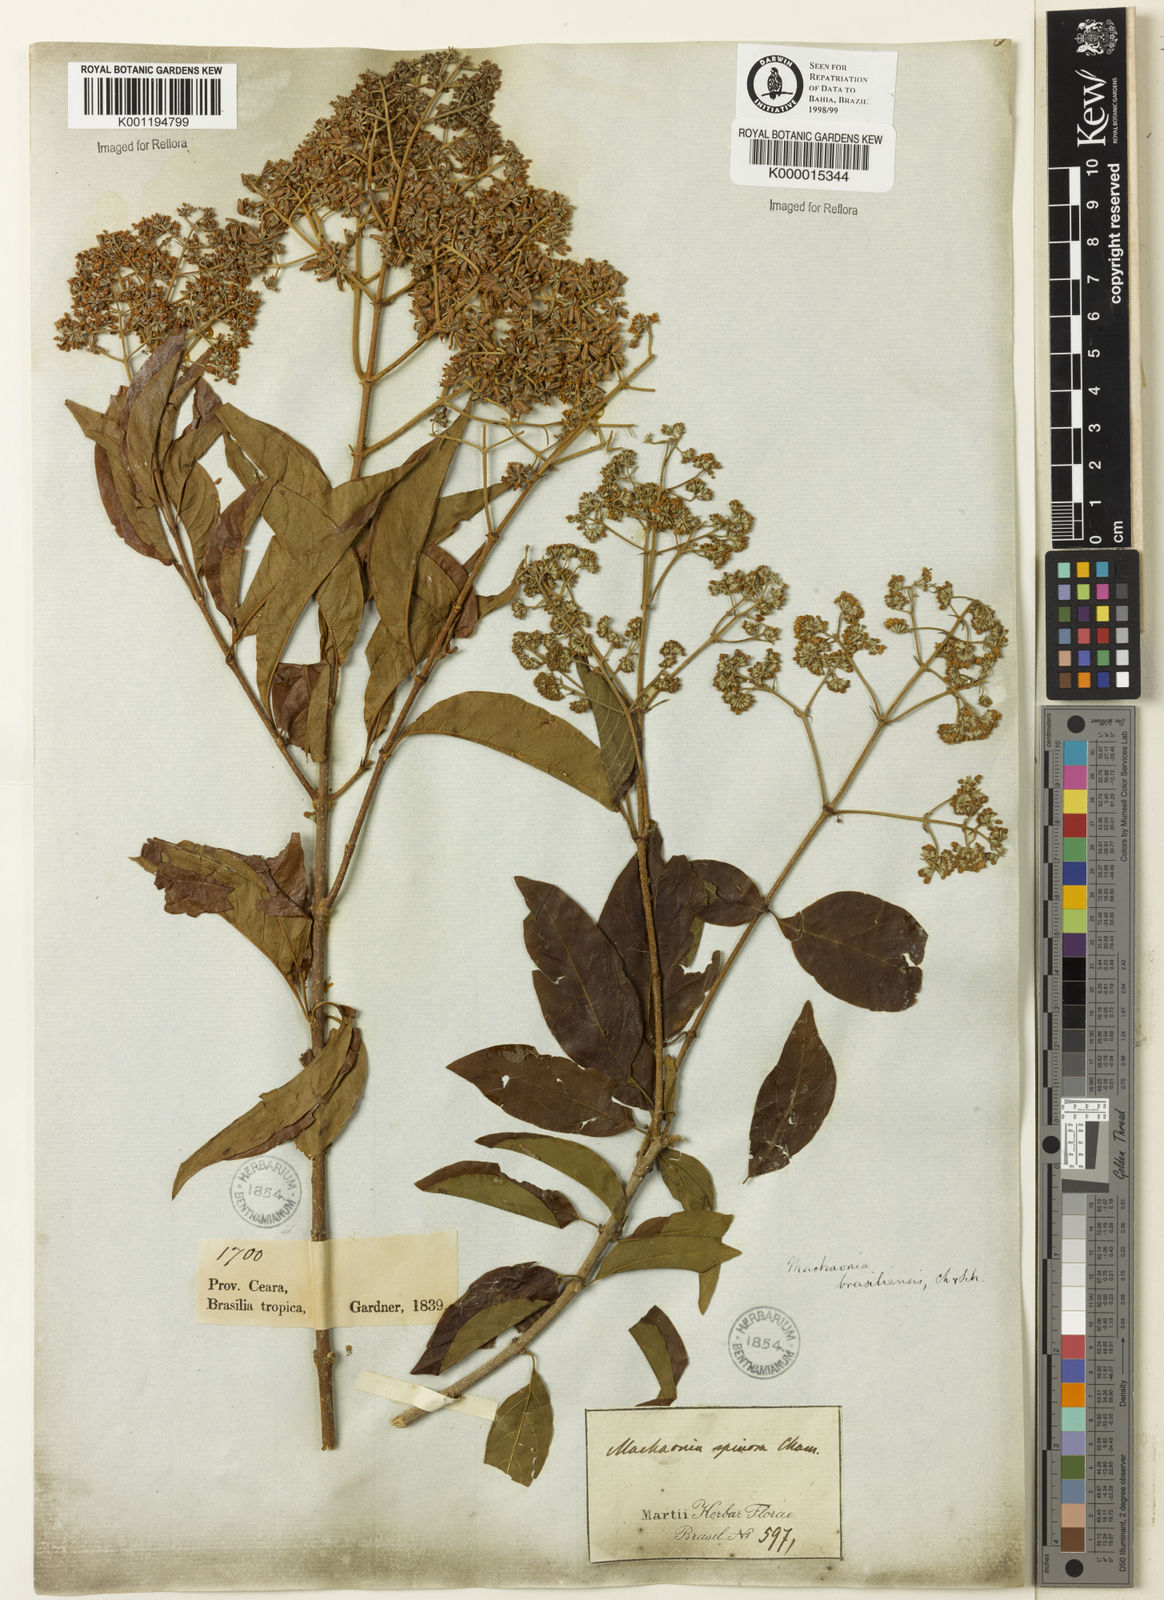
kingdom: Plantae
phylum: Tracheophyta
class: Magnoliopsida
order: Gentianales
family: Rubiaceae
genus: Machaonia
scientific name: Machaonia brasiliensis
